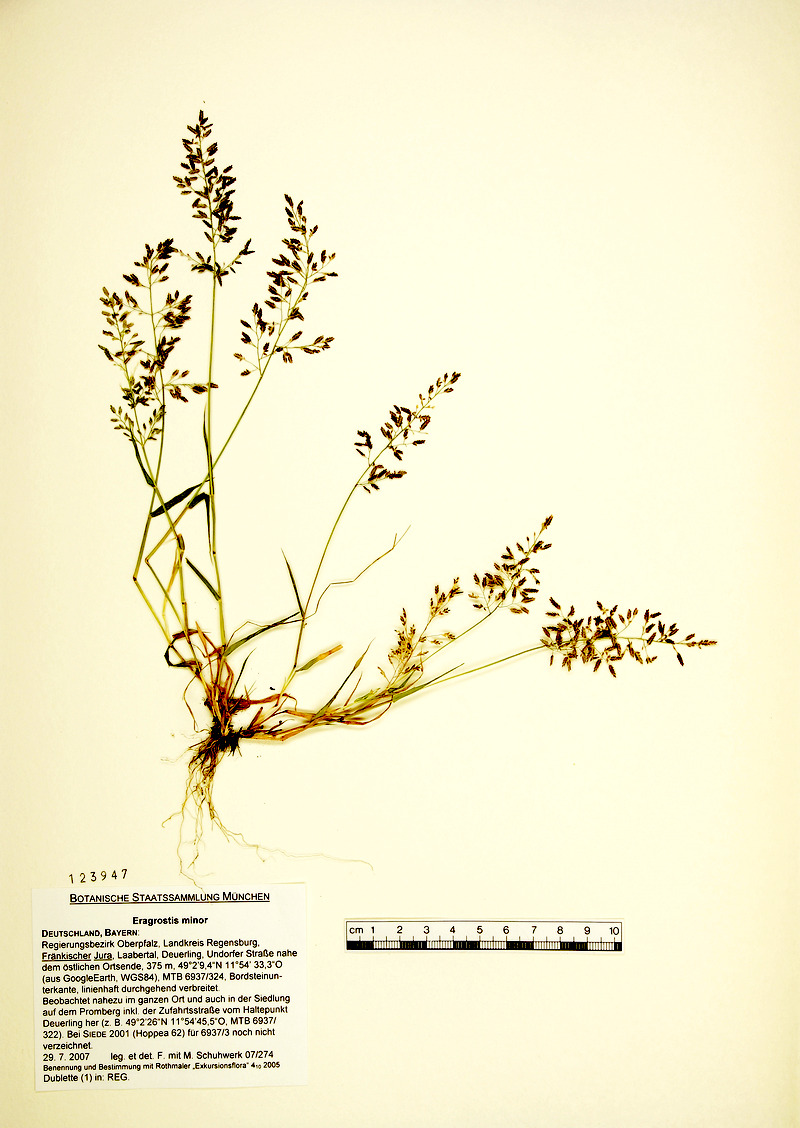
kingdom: Plantae
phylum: Tracheophyta
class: Liliopsida
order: Poales
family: Poaceae
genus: Eragrostis
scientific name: Eragrostis minor
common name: Small love-grass
